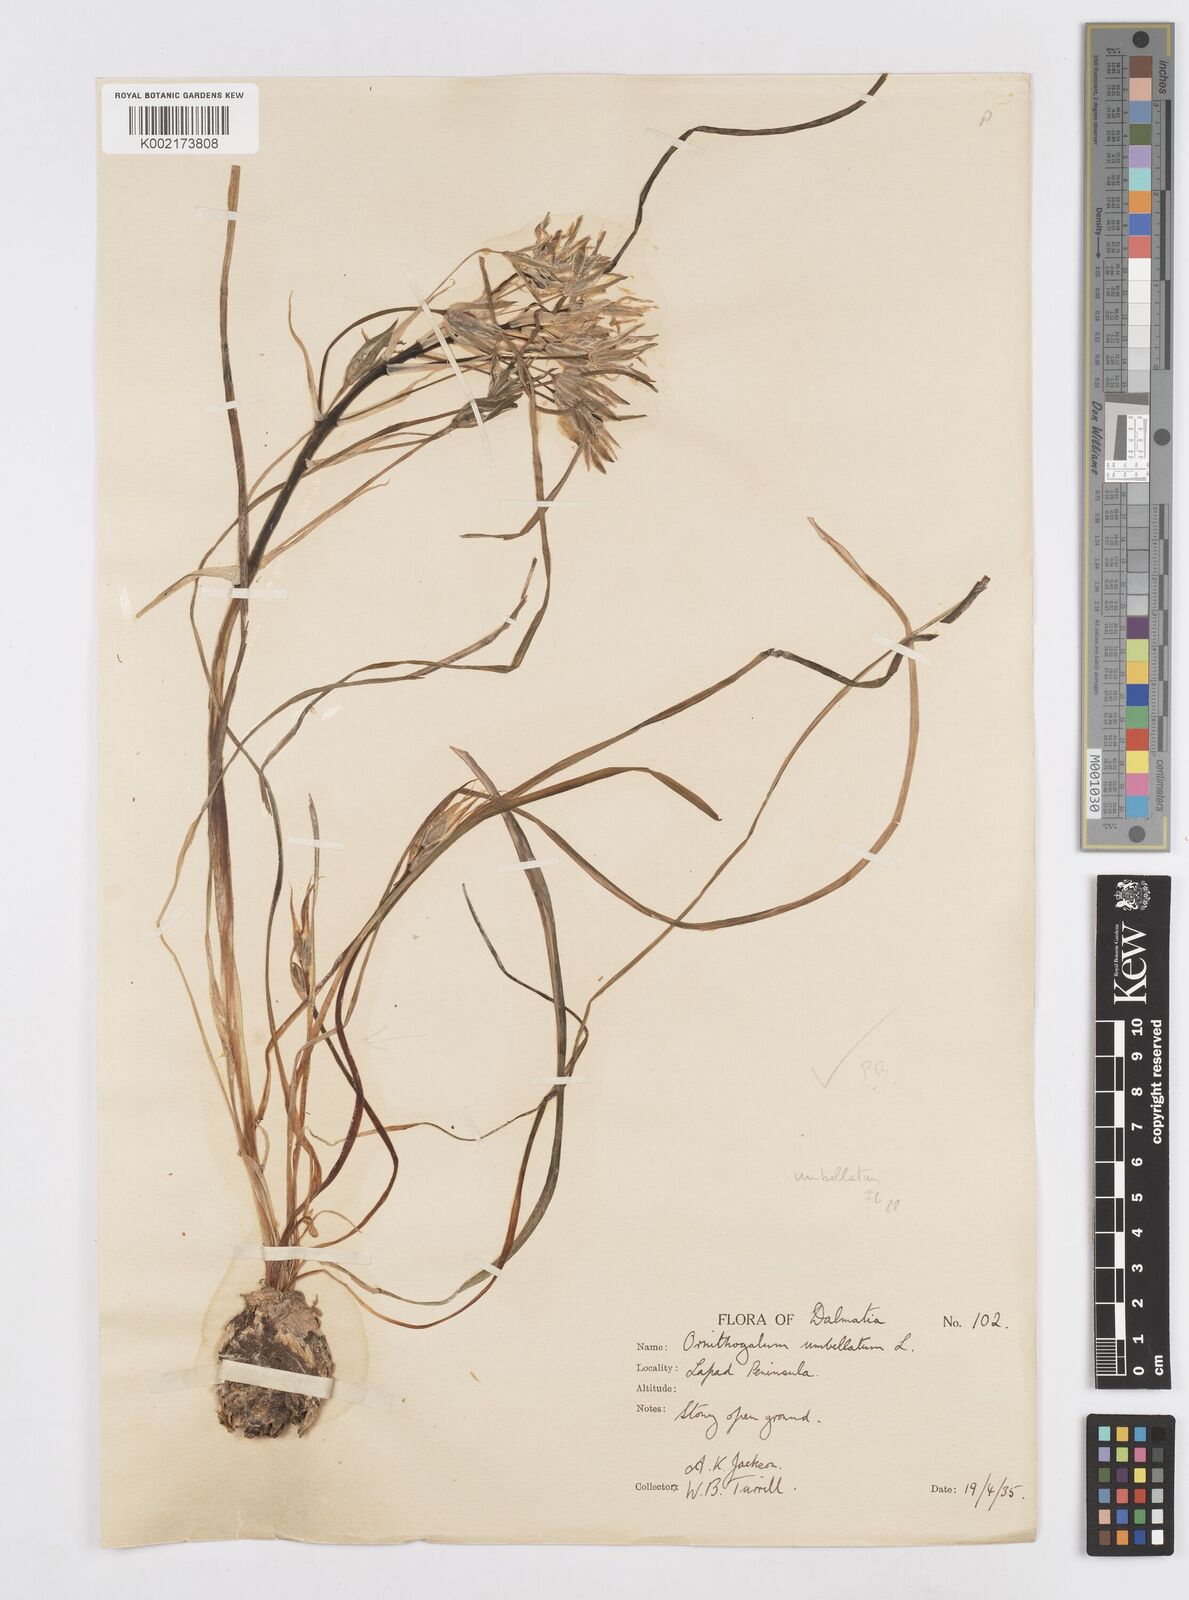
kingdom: Plantae
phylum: Tracheophyta
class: Liliopsida
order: Asparagales
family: Asparagaceae
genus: Ornithogalum
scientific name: Ornithogalum umbellatum
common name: Garden star-of-bethlehem
